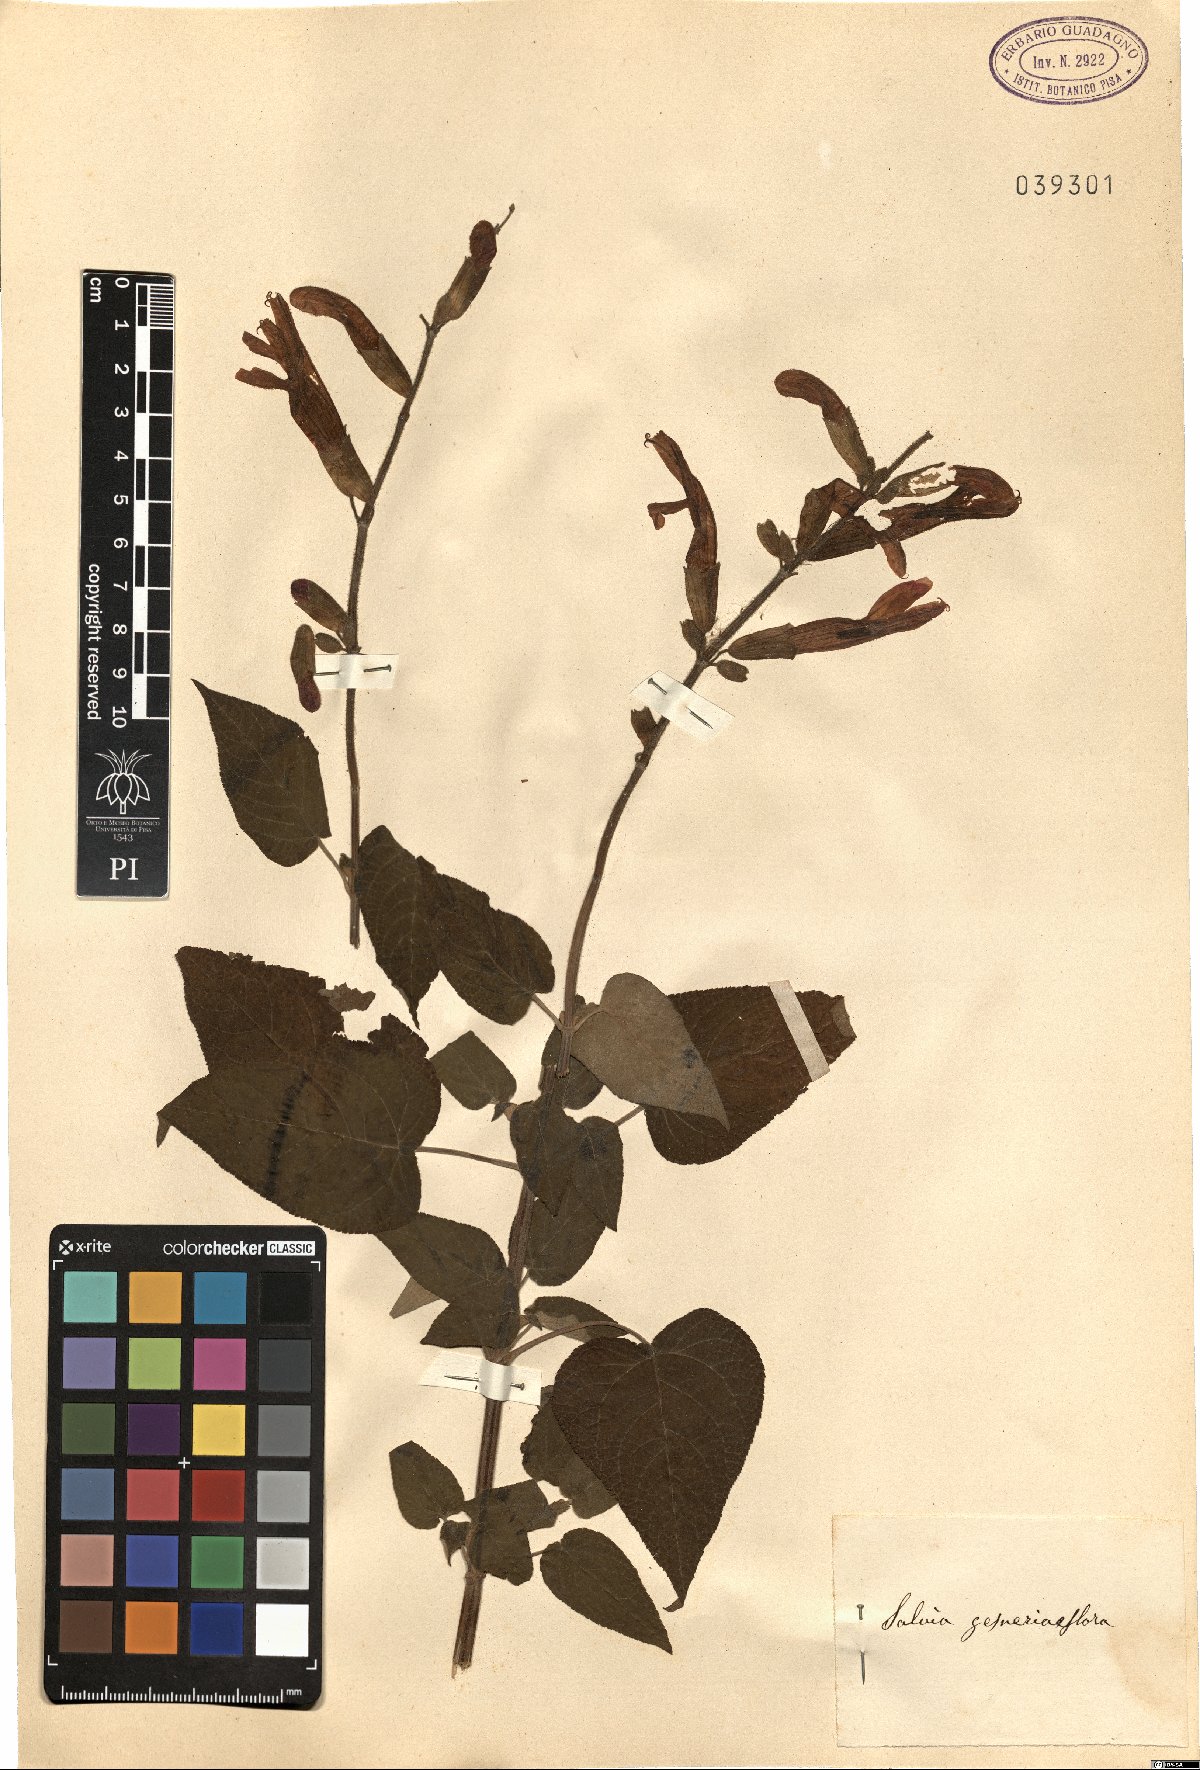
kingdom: Plantae
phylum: Tracheophyta
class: Magnoliopsida
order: Lamiales
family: Lamiaceae
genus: Salvia
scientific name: Salvia gesneriiflora
